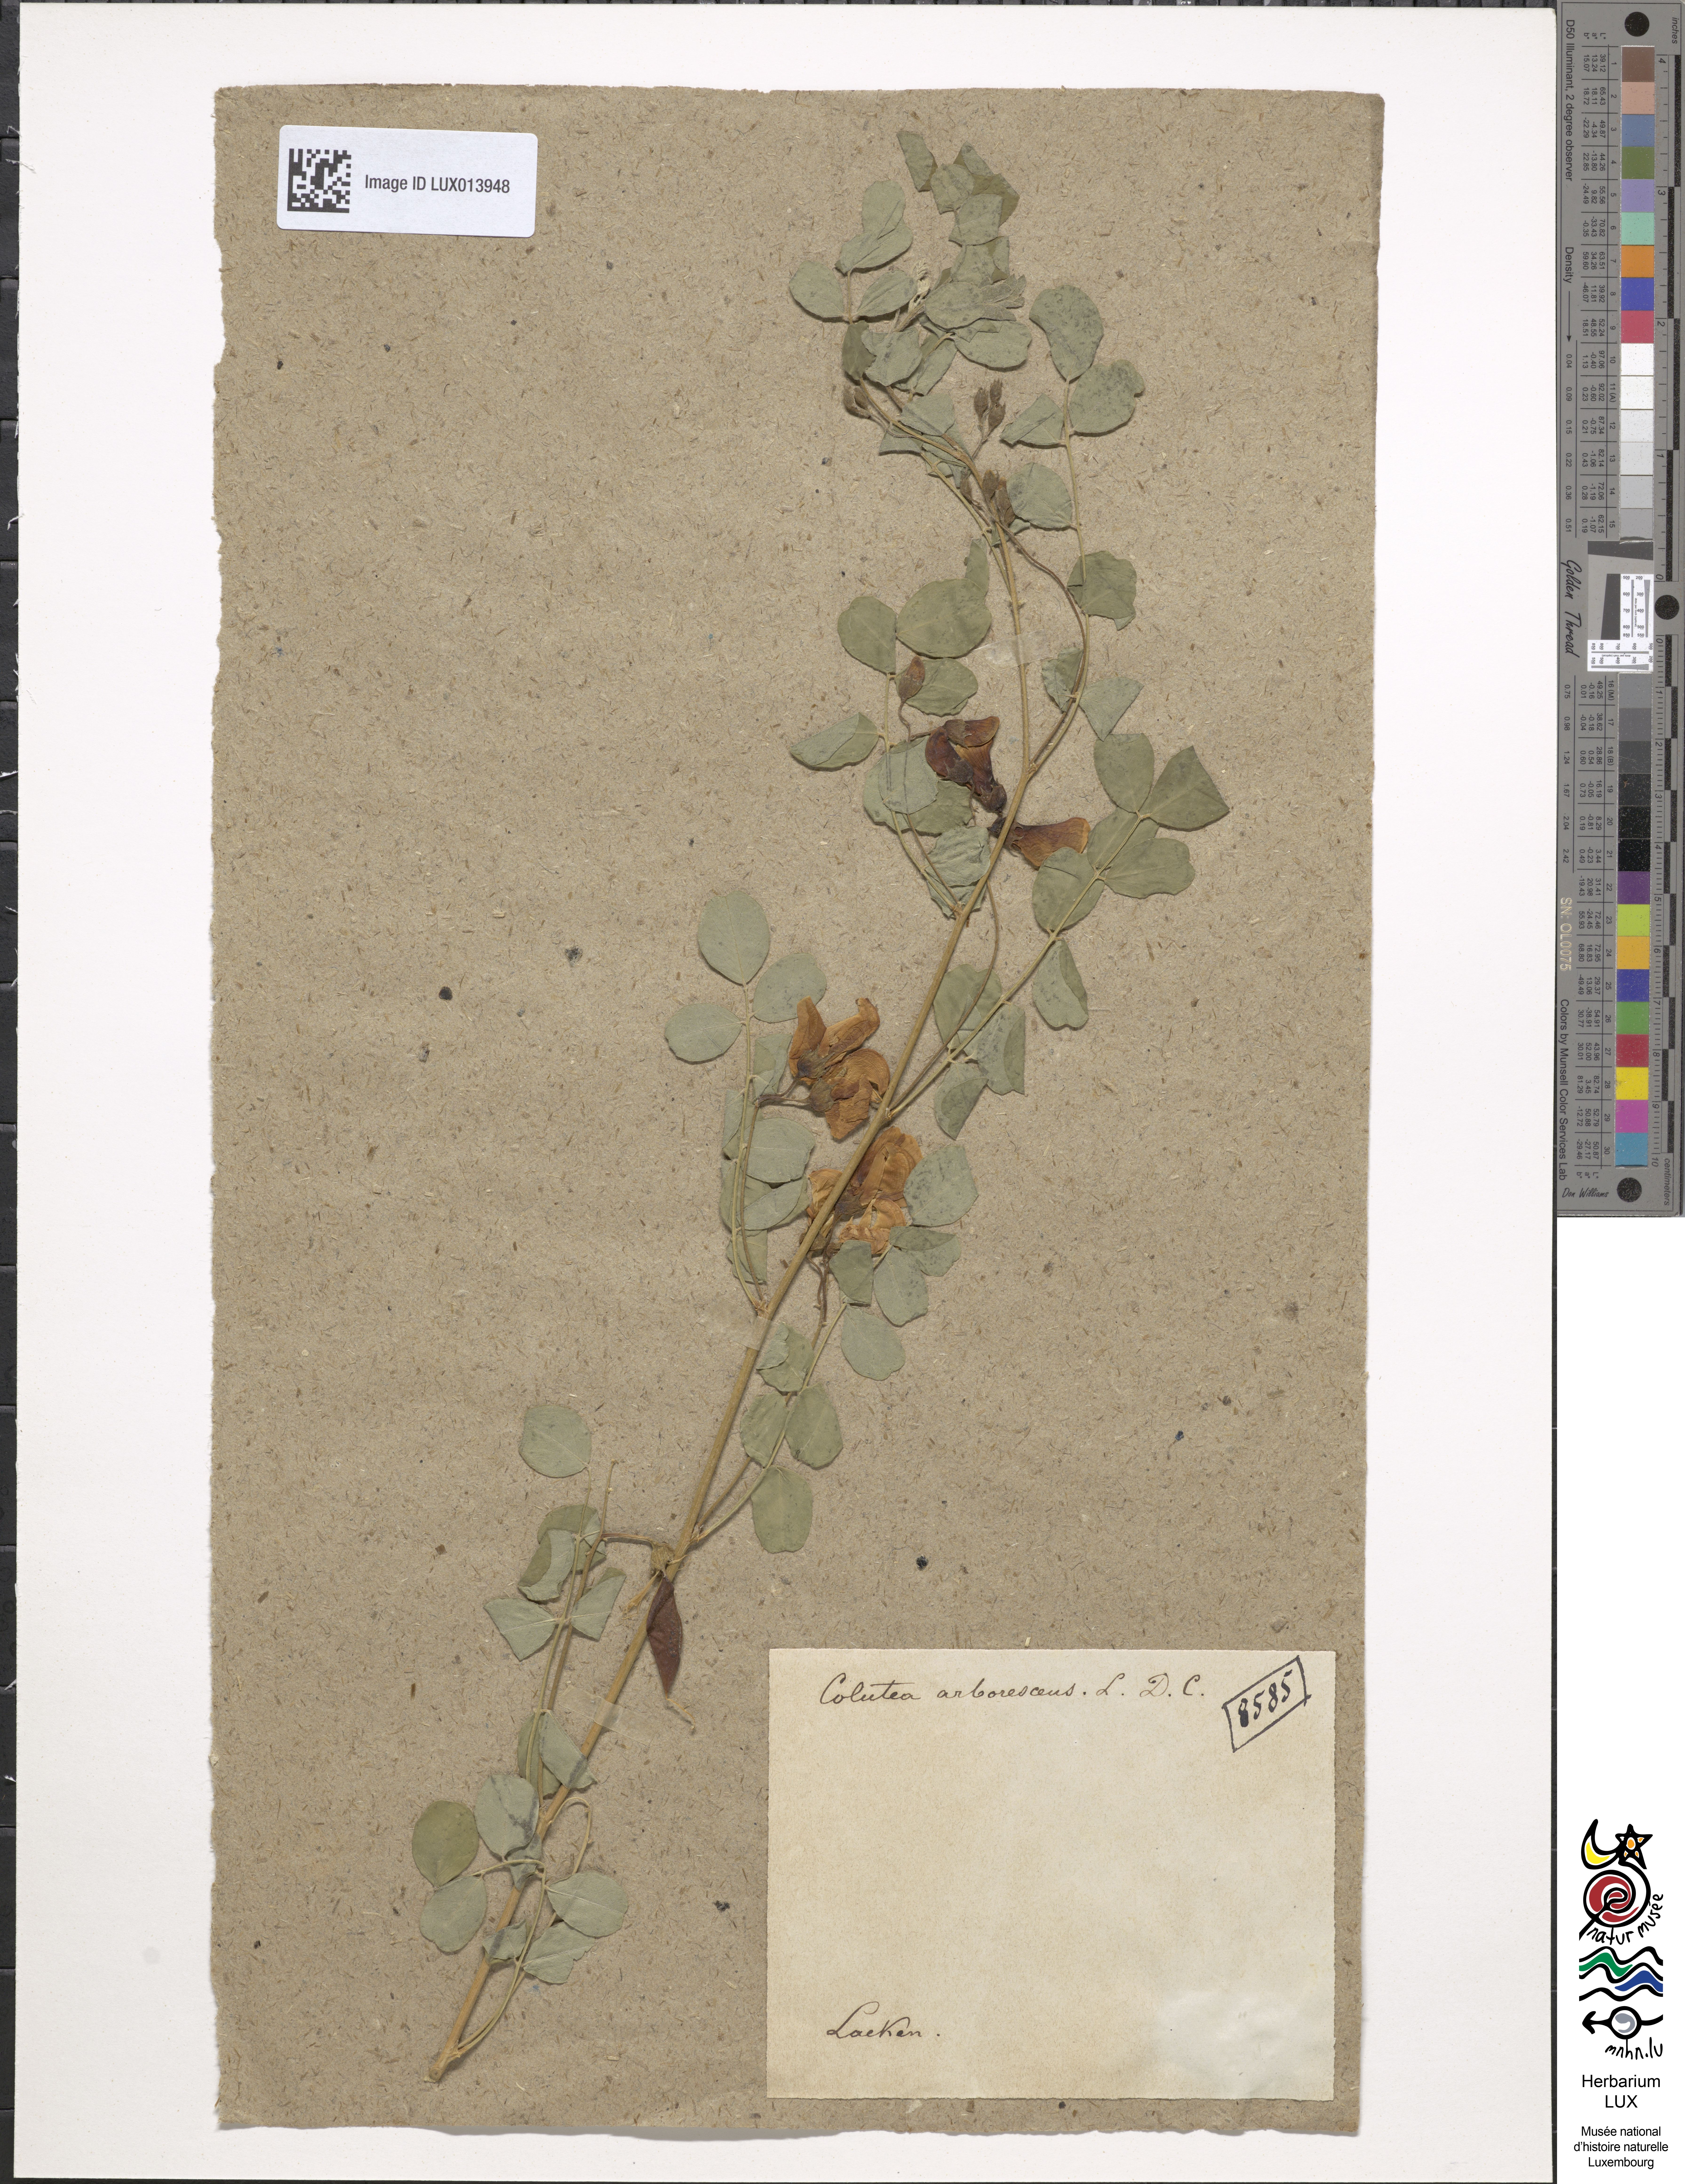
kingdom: Plantae
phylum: Tracheophyta
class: Magnoliopsida
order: Fabales
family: Fabaceae
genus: Colutea
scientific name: Colutea arborescens
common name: Bladder-senna
